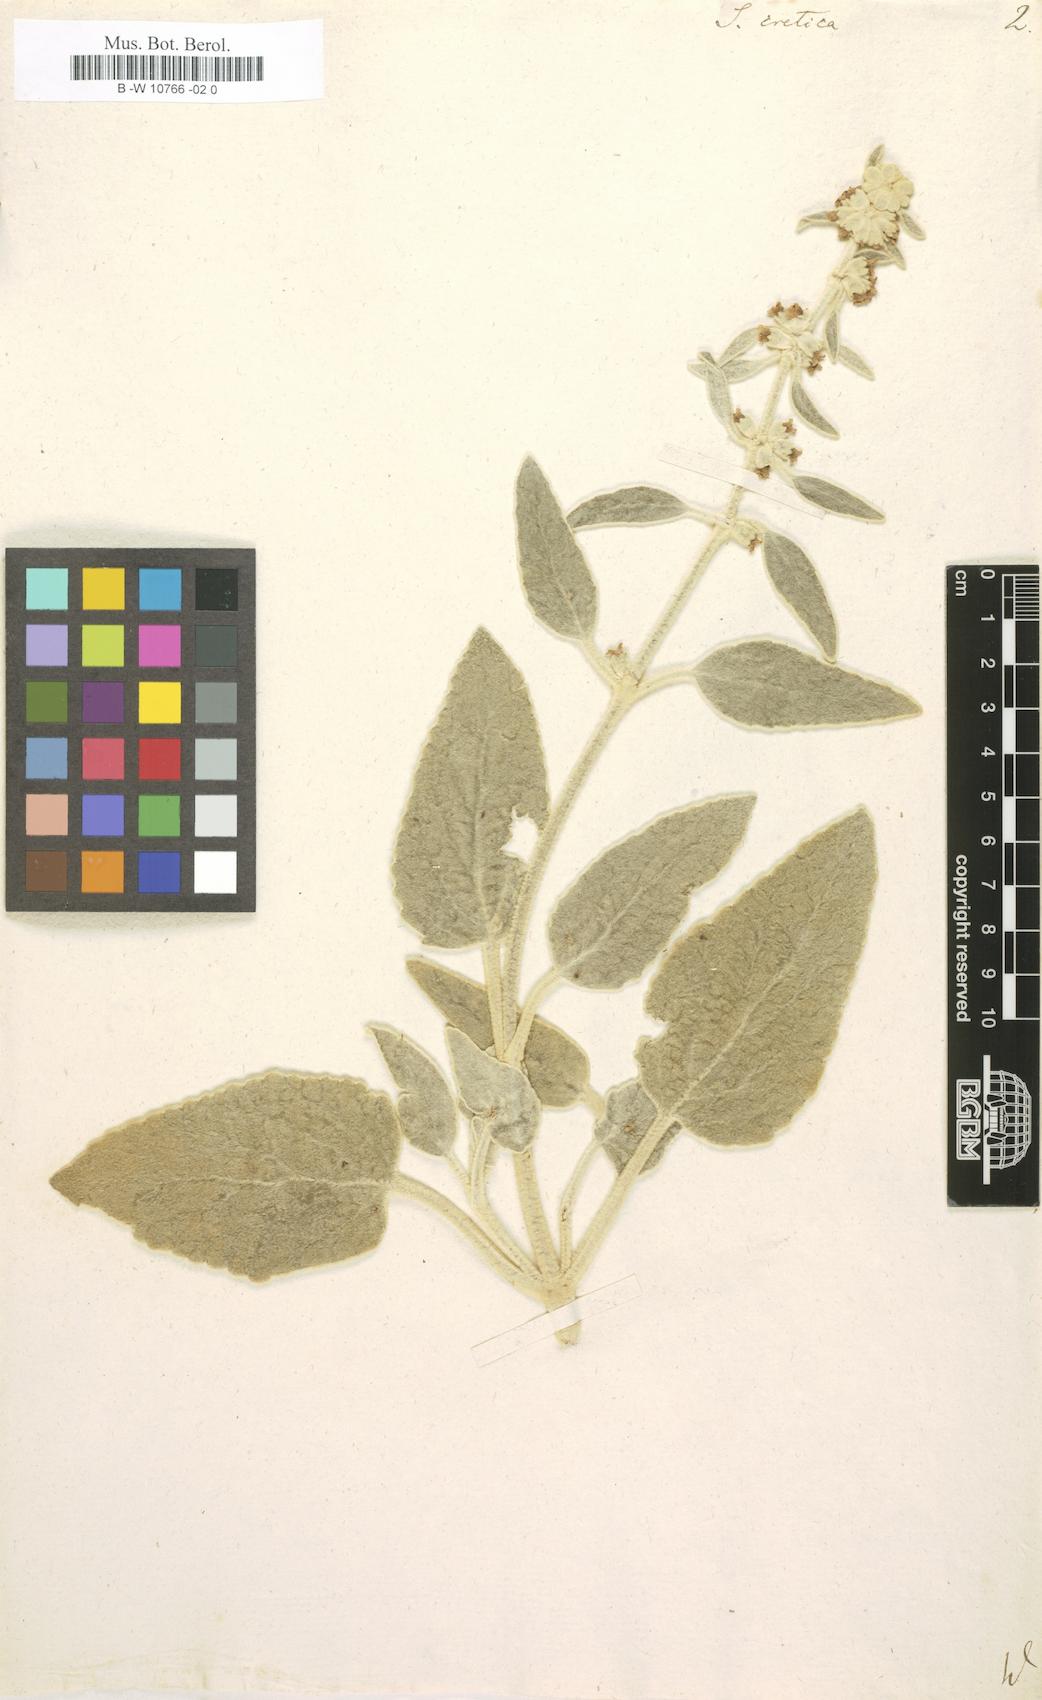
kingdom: Plantae
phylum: Tracheophyta
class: Magnoliopsida
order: Lamiales
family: Lamiaceae
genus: Sideritis
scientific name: Sideritis cretica
